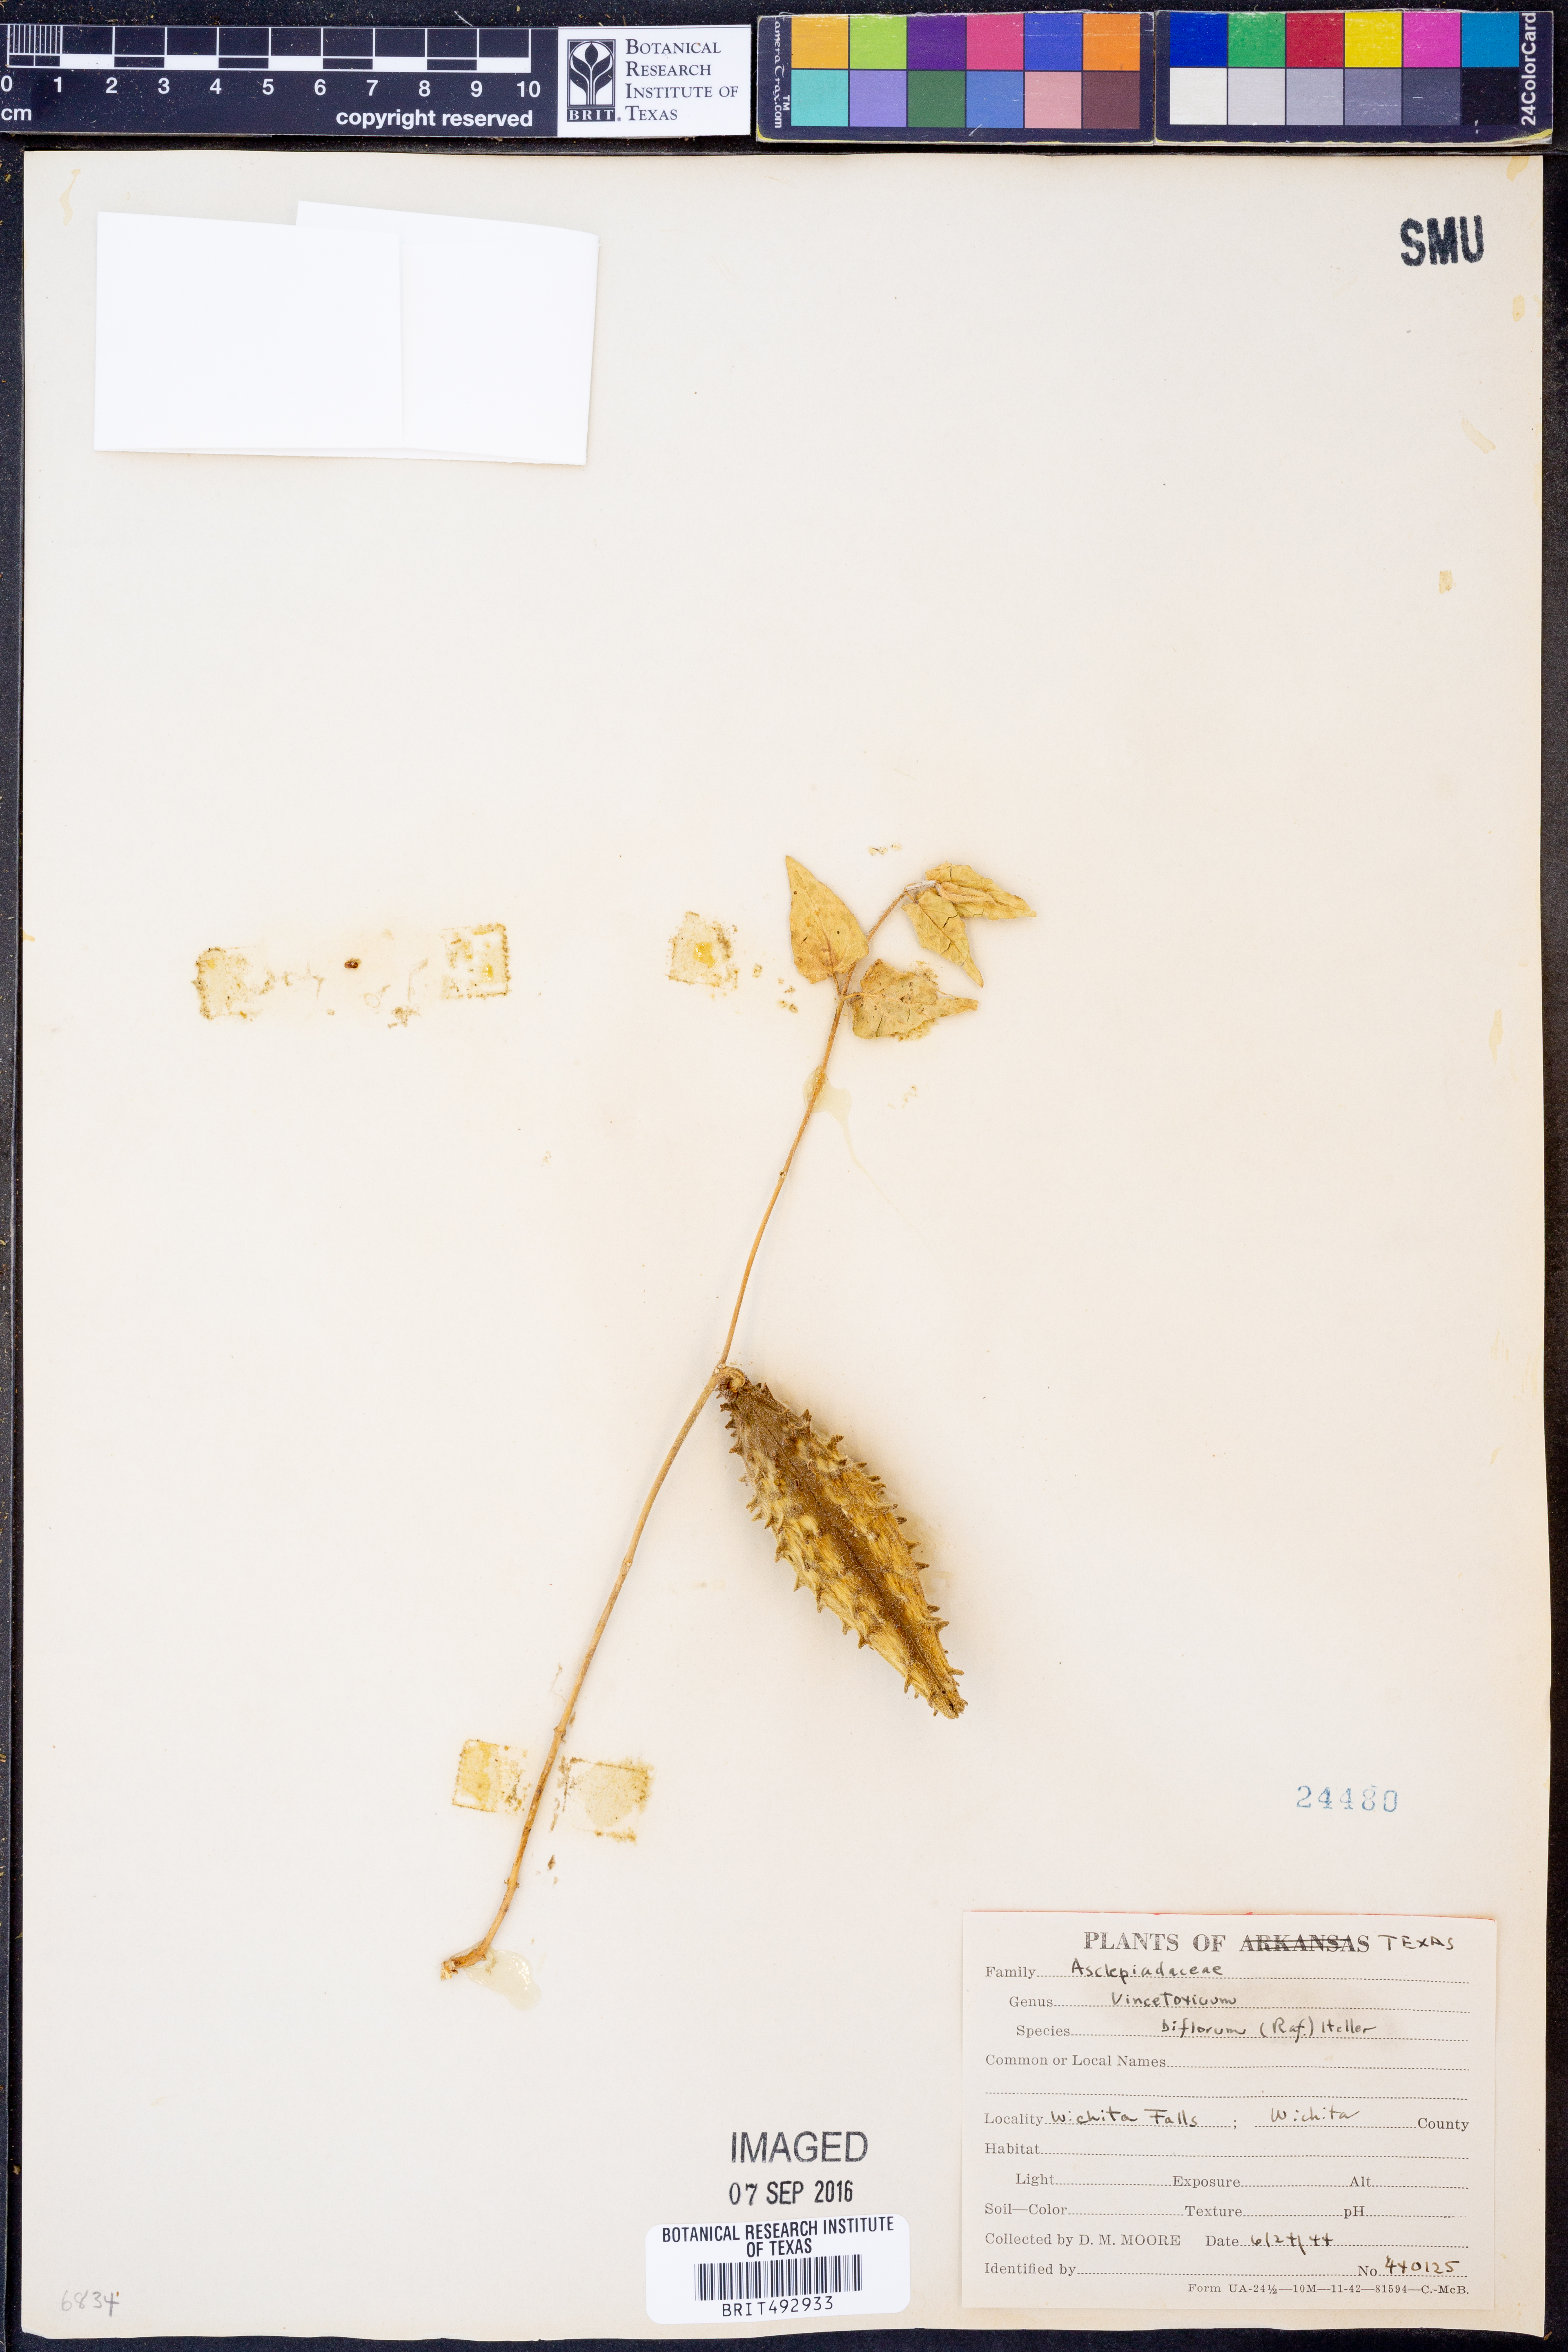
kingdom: Plantae
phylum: Tracheophyta
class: Magnoliopsida
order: Gentianales
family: Apocynaceae
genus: Chthamalia
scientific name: Chthamalia biflora
